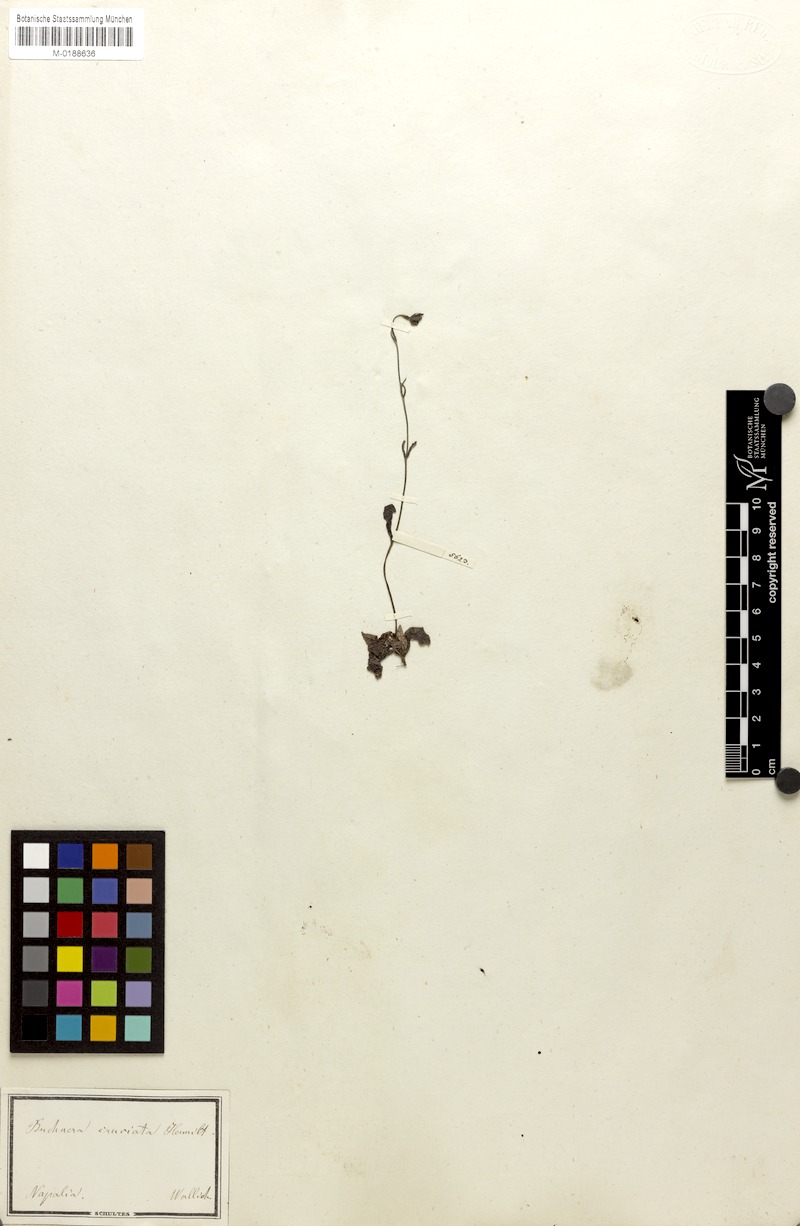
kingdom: Plantae
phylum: Tracheophyta
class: Magnoliopsida
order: Lamiales
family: Orobanchaceae
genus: Buchnera
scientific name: Buchnera cruciata
